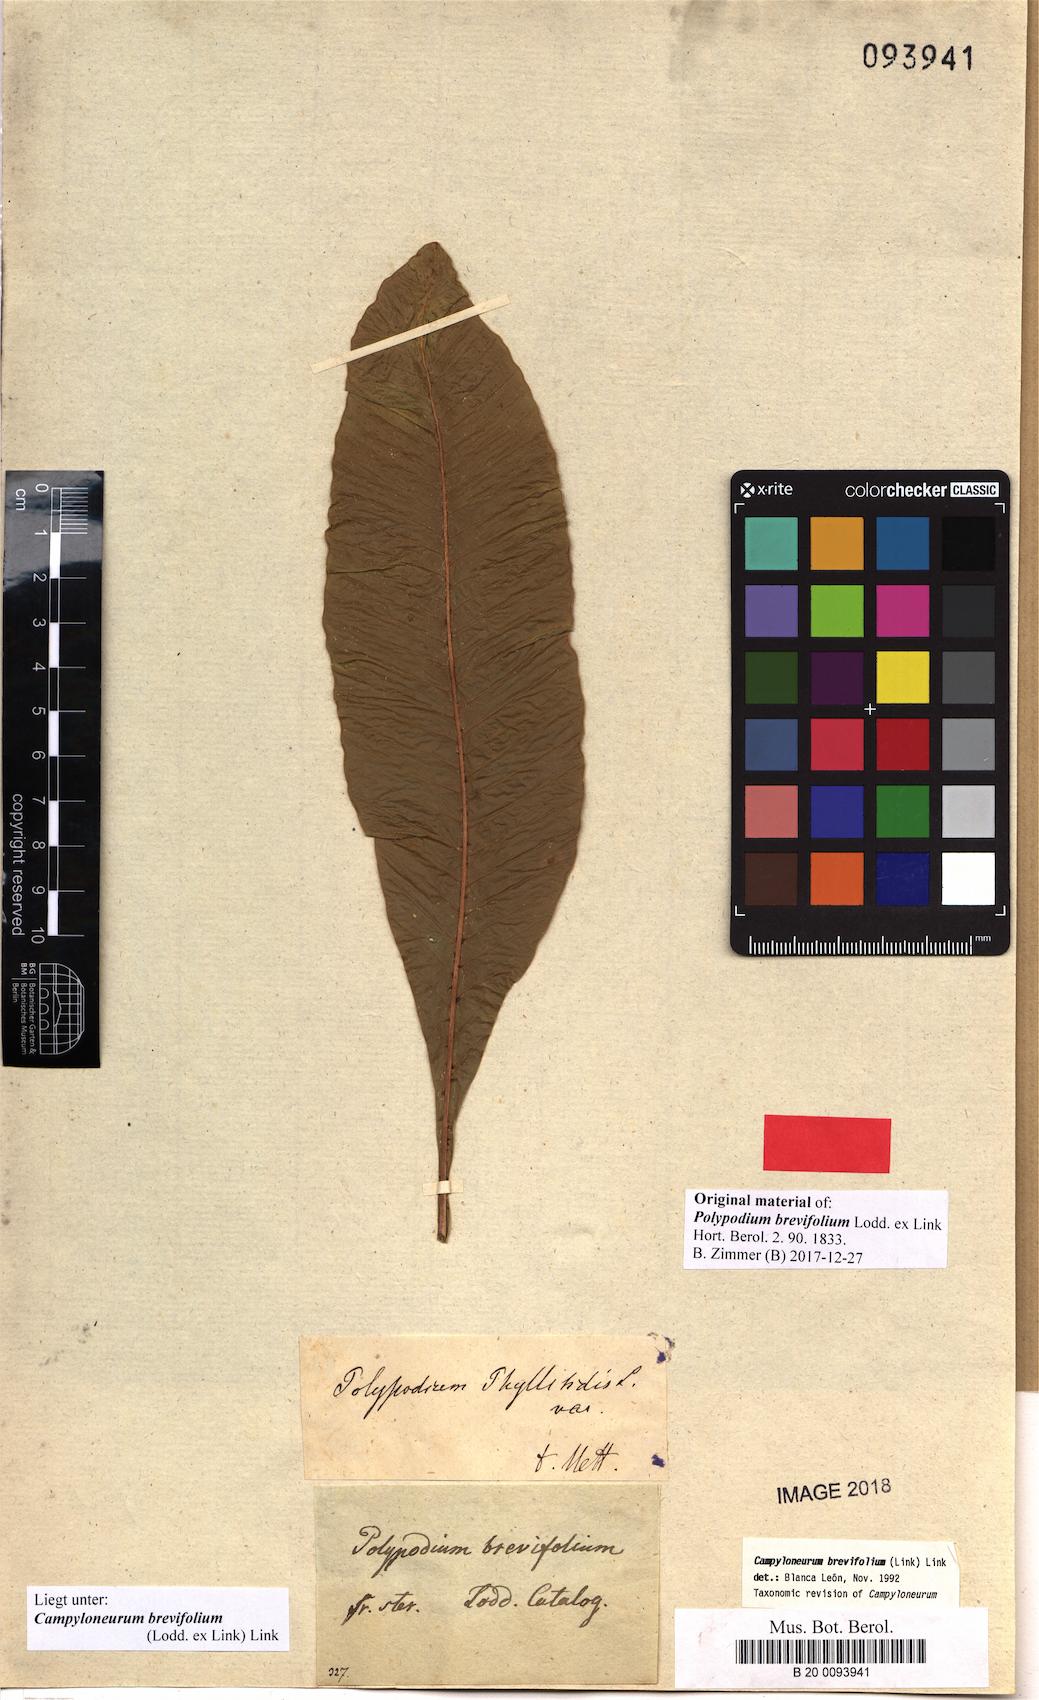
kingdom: Plantae
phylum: Tracheophyta
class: Polypodiopsida
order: Polypodiales
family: Polypodiaceae
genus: Campyloneurum
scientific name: Campyloneurum brevifolium
